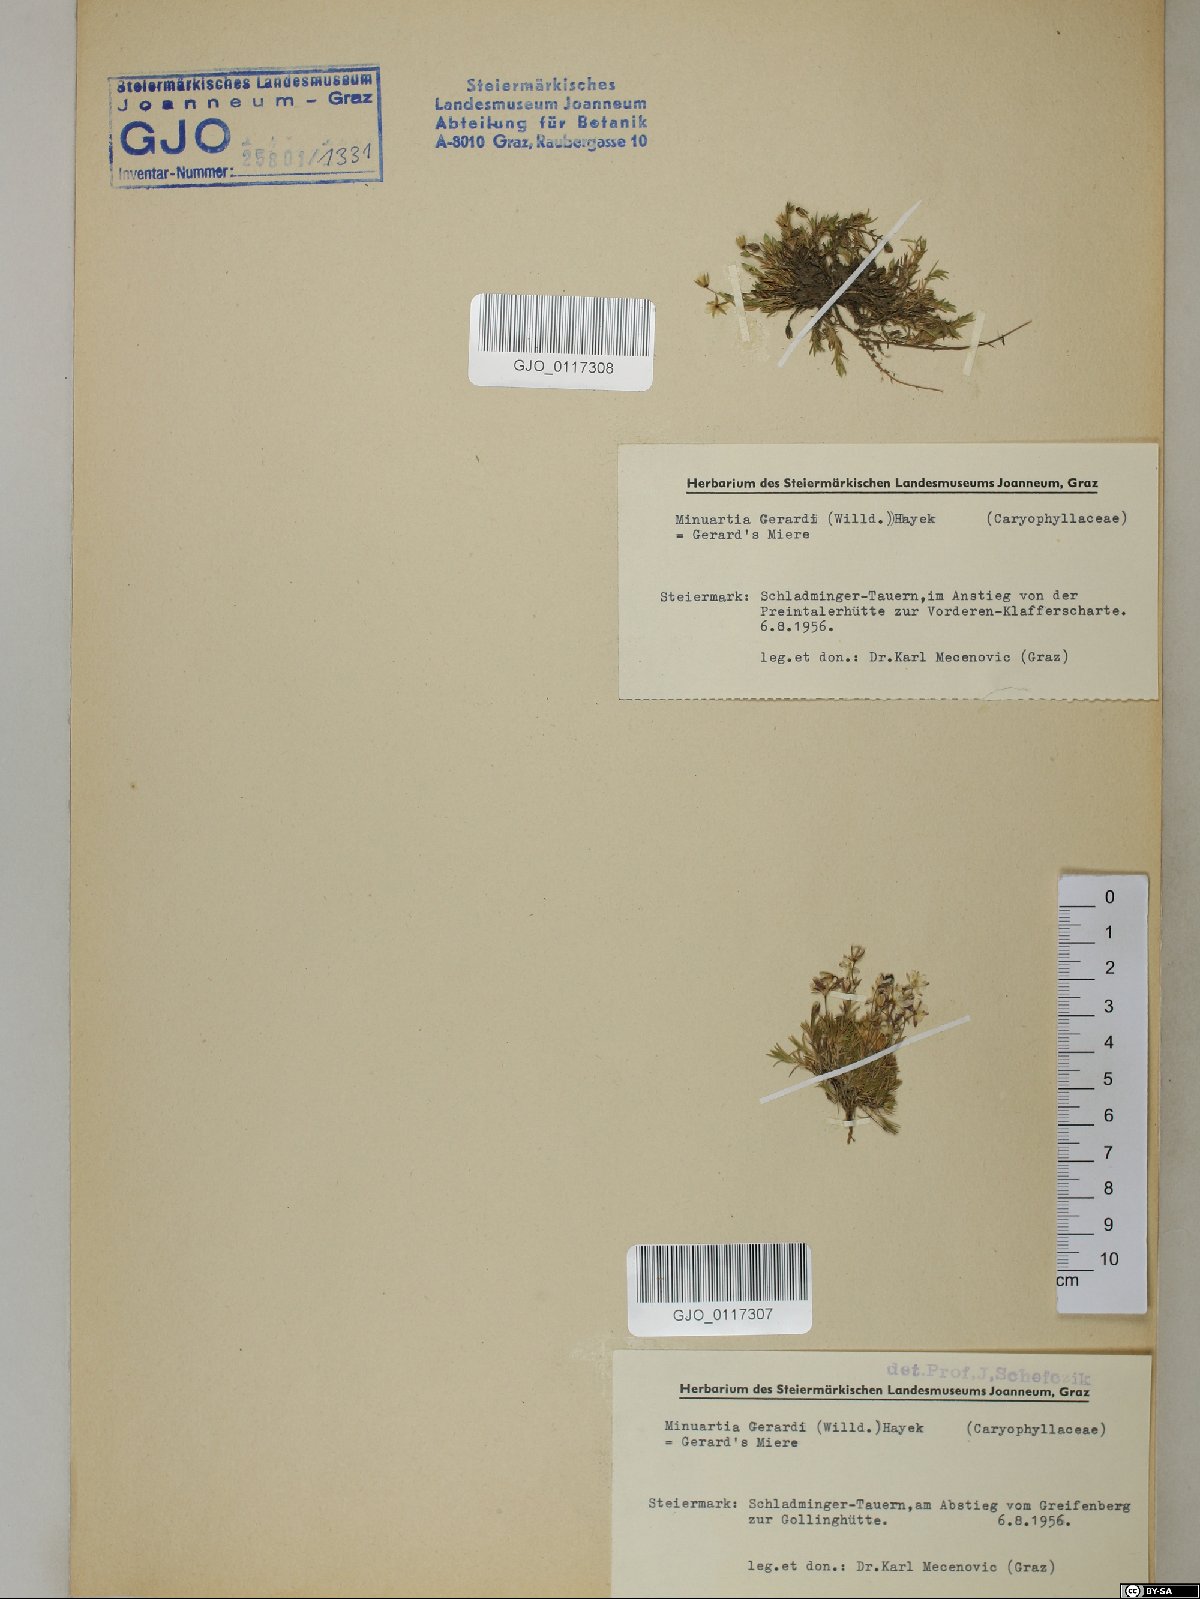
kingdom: Plantae
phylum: Tracheophyta
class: Magnoliopsida
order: Caryophyllales
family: Caryophyllaceae
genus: Sabulina
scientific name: Sabulina verna
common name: Spring sandwort
